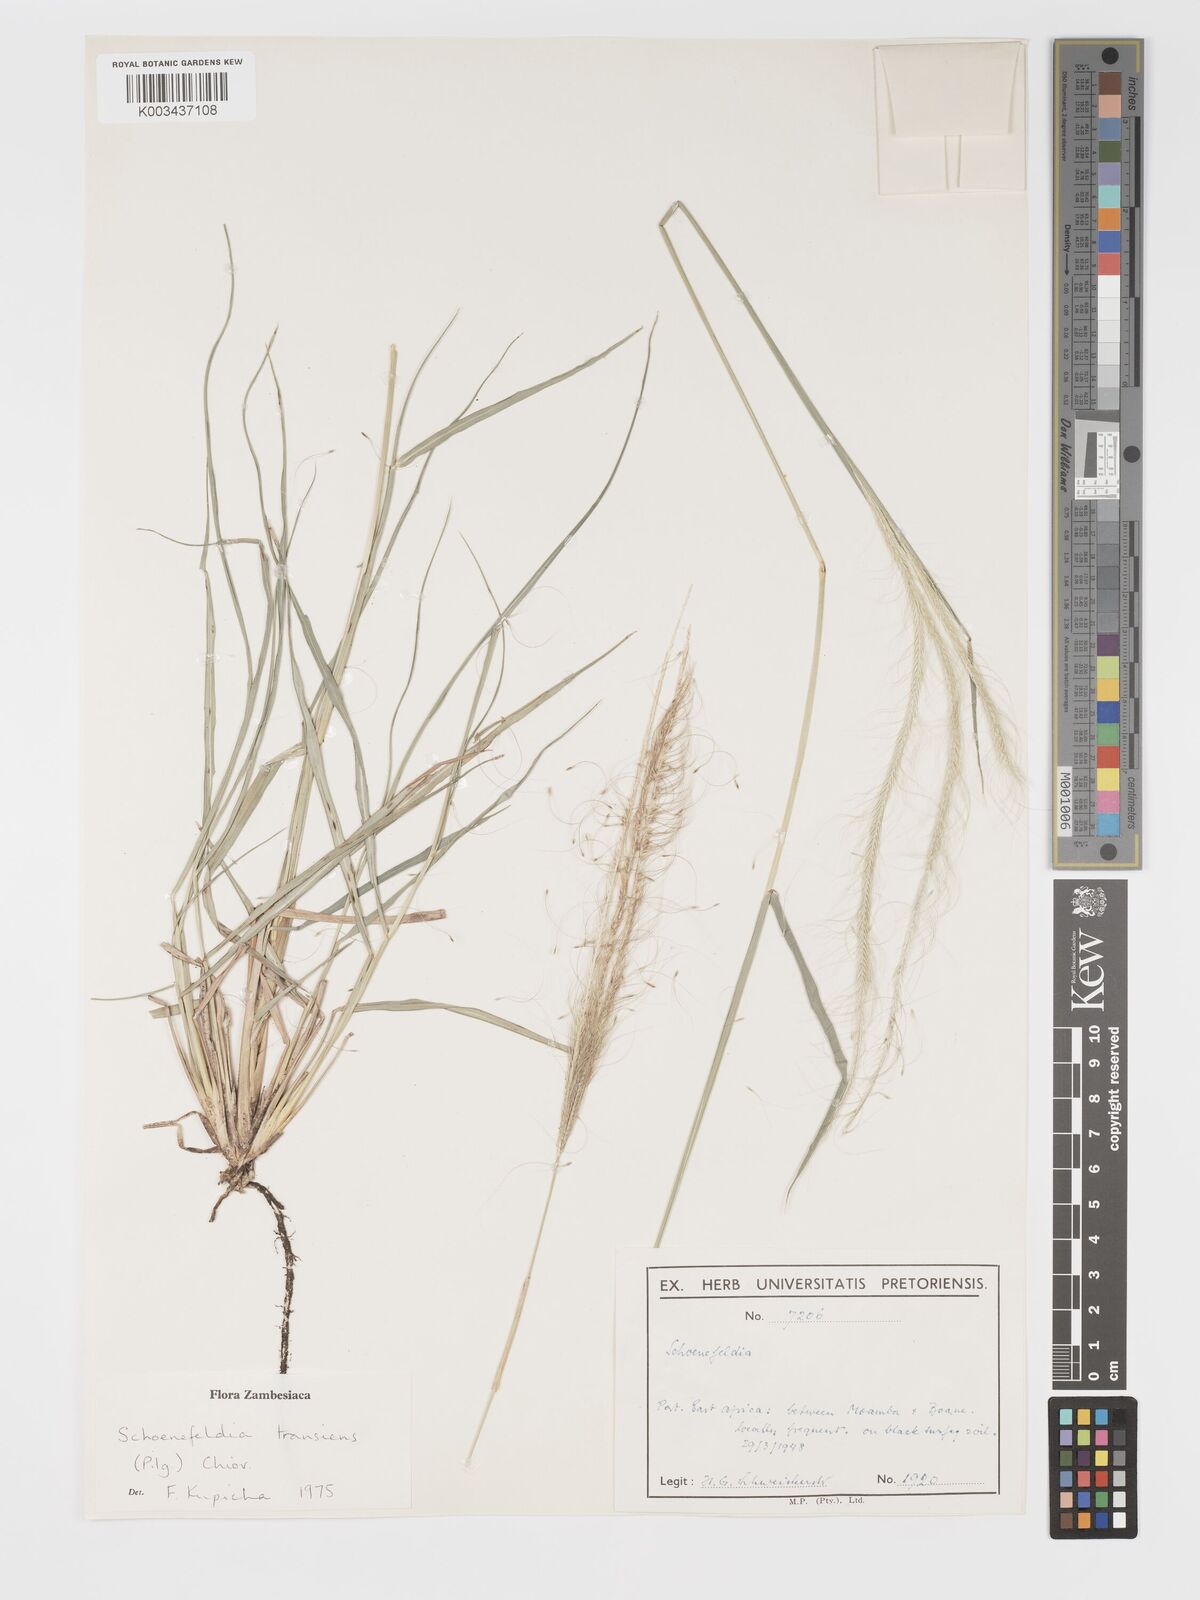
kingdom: Plantae
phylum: Tracheophyta
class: Liliopsida
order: Poales
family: Poaceae
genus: Schoenefeldia
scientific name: Schoenefeldia transiens
